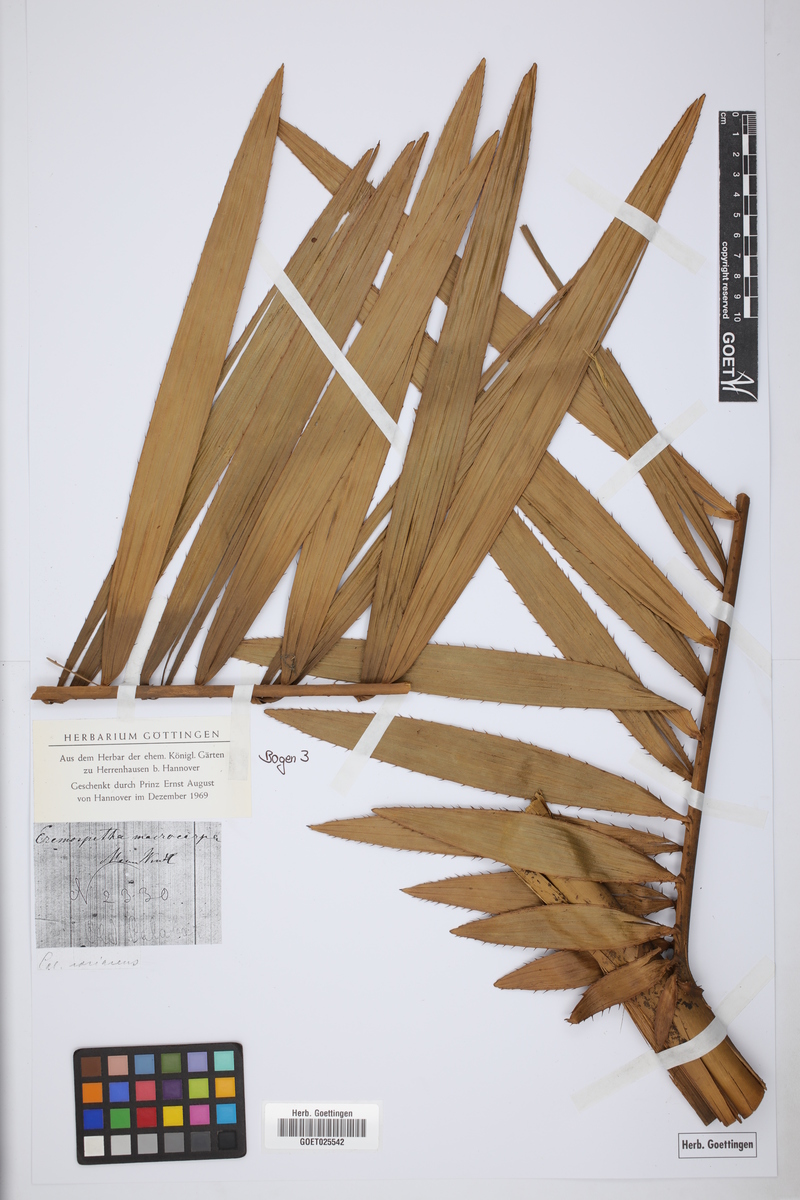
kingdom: Plantae
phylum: Tracheophyta
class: Liliopsida
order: Arecales
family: Arecaceae
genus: Eremospatha
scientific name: Eremospatha macrocarpa
